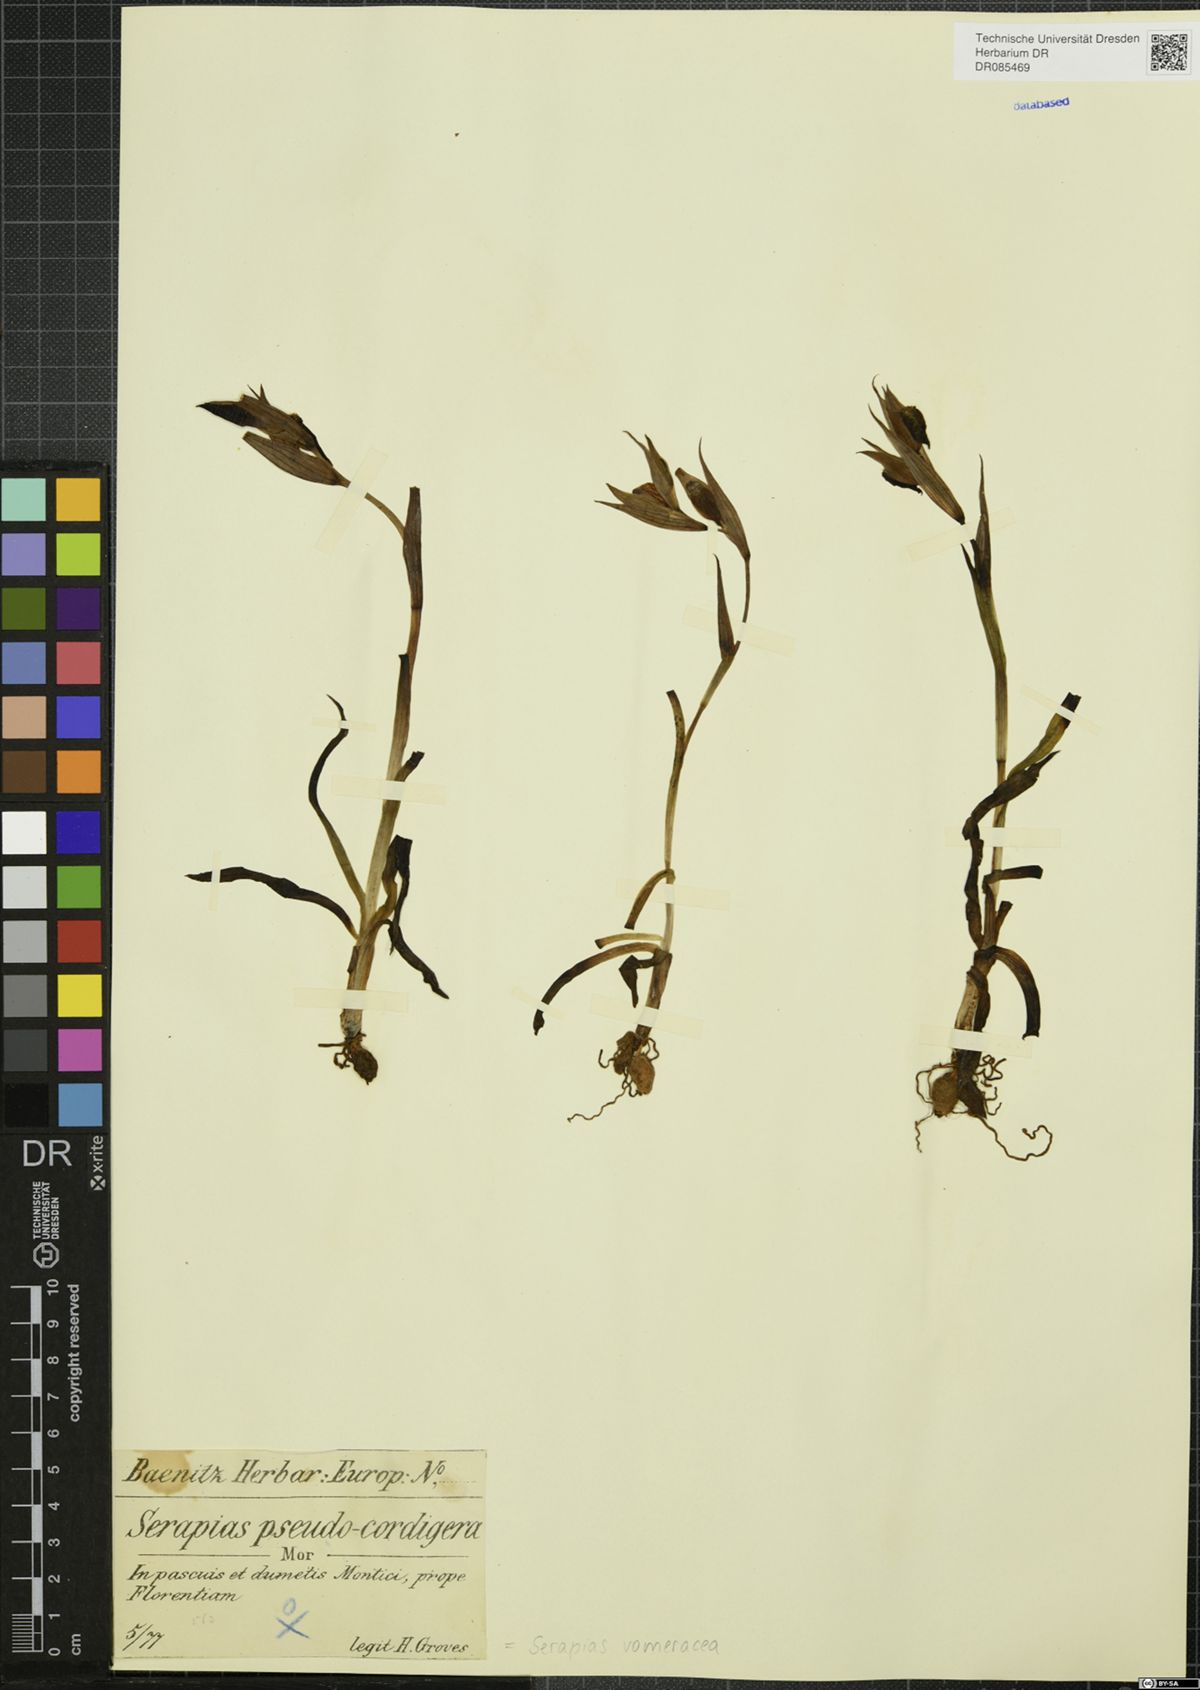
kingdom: Plantae
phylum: Tracheophyta
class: Liliopsida
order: Asparagales
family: Orchidaceae
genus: Serapias
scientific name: Serapias vomeracea
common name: Long-lipped tongue-orchid
